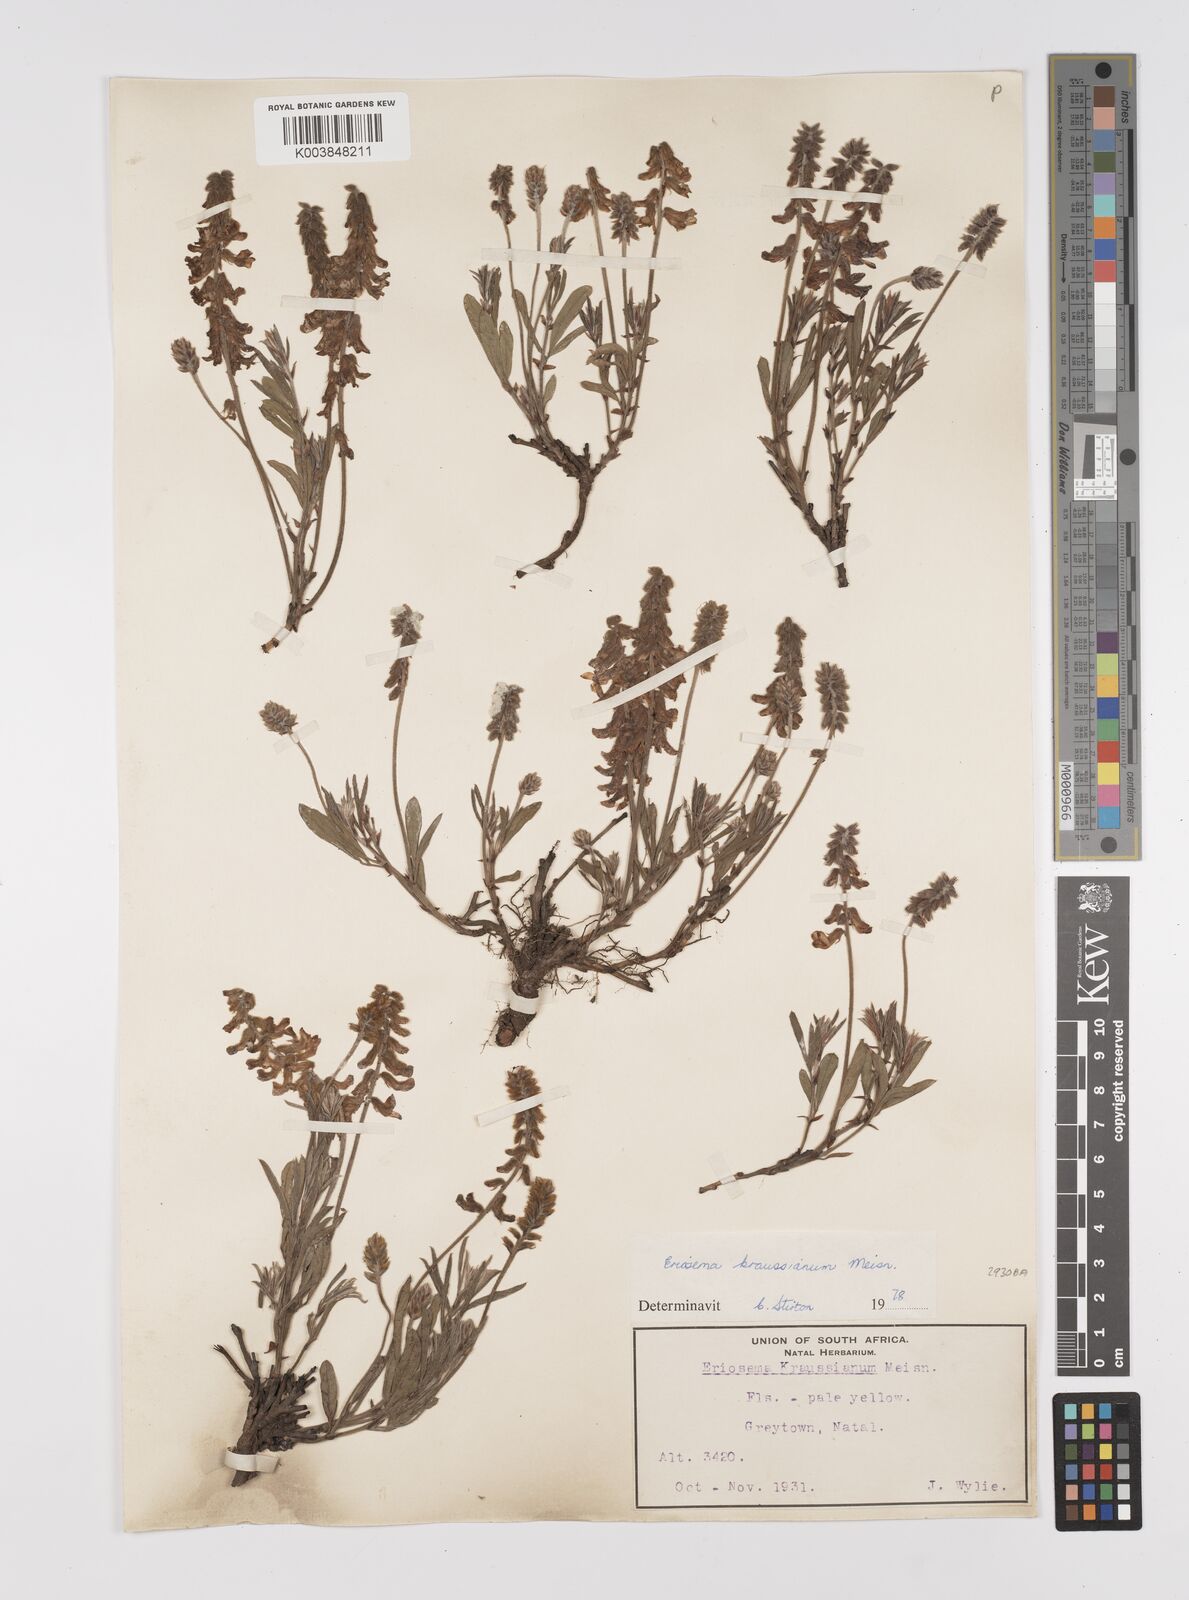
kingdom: Plantae
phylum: Tracheophyta
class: Magnoliopsida
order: Fabales
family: Fabaceae
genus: Eriosema
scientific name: Eriosema kraussianum
